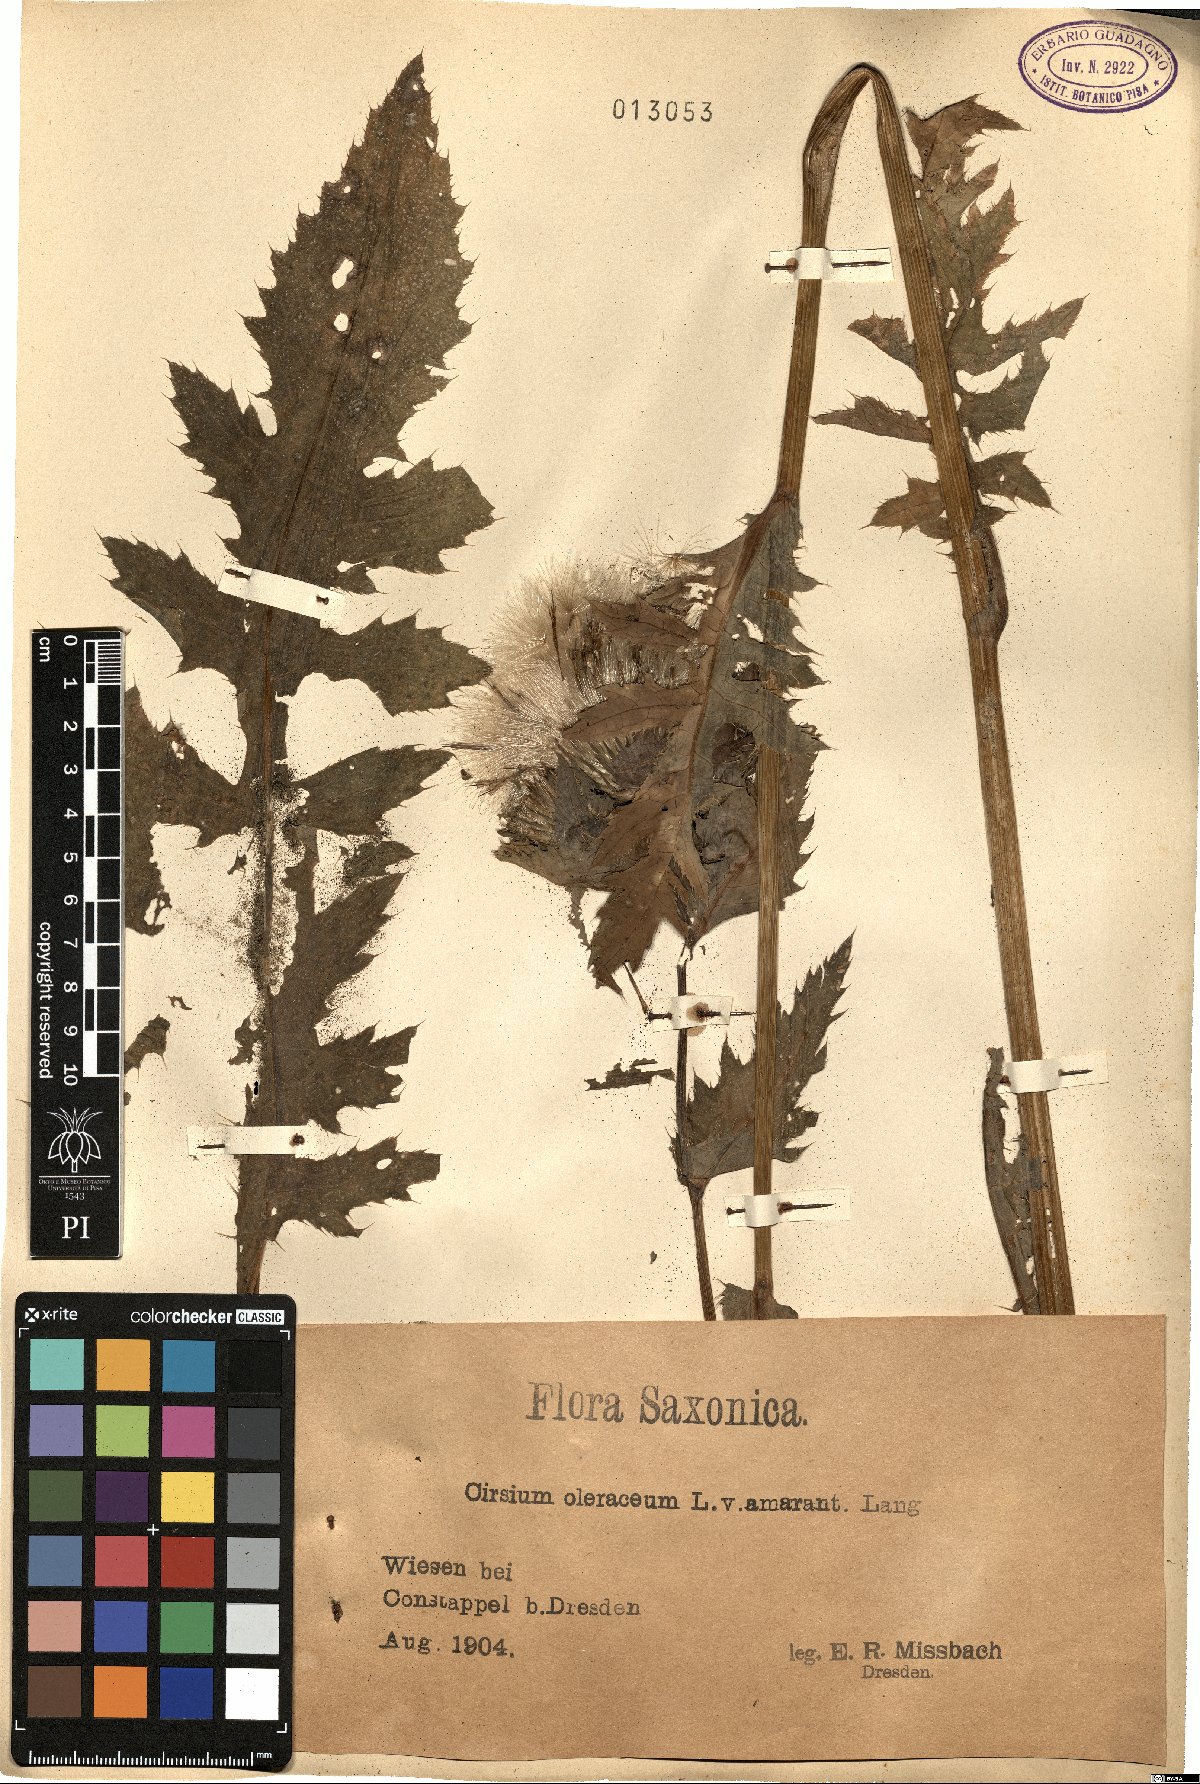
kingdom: Plantae
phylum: Tracheophyta
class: Magnoliopsida
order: Asterales
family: Asteraceae
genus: Cirsium
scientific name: Cirsium oleraceum
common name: Cabbage thistle
